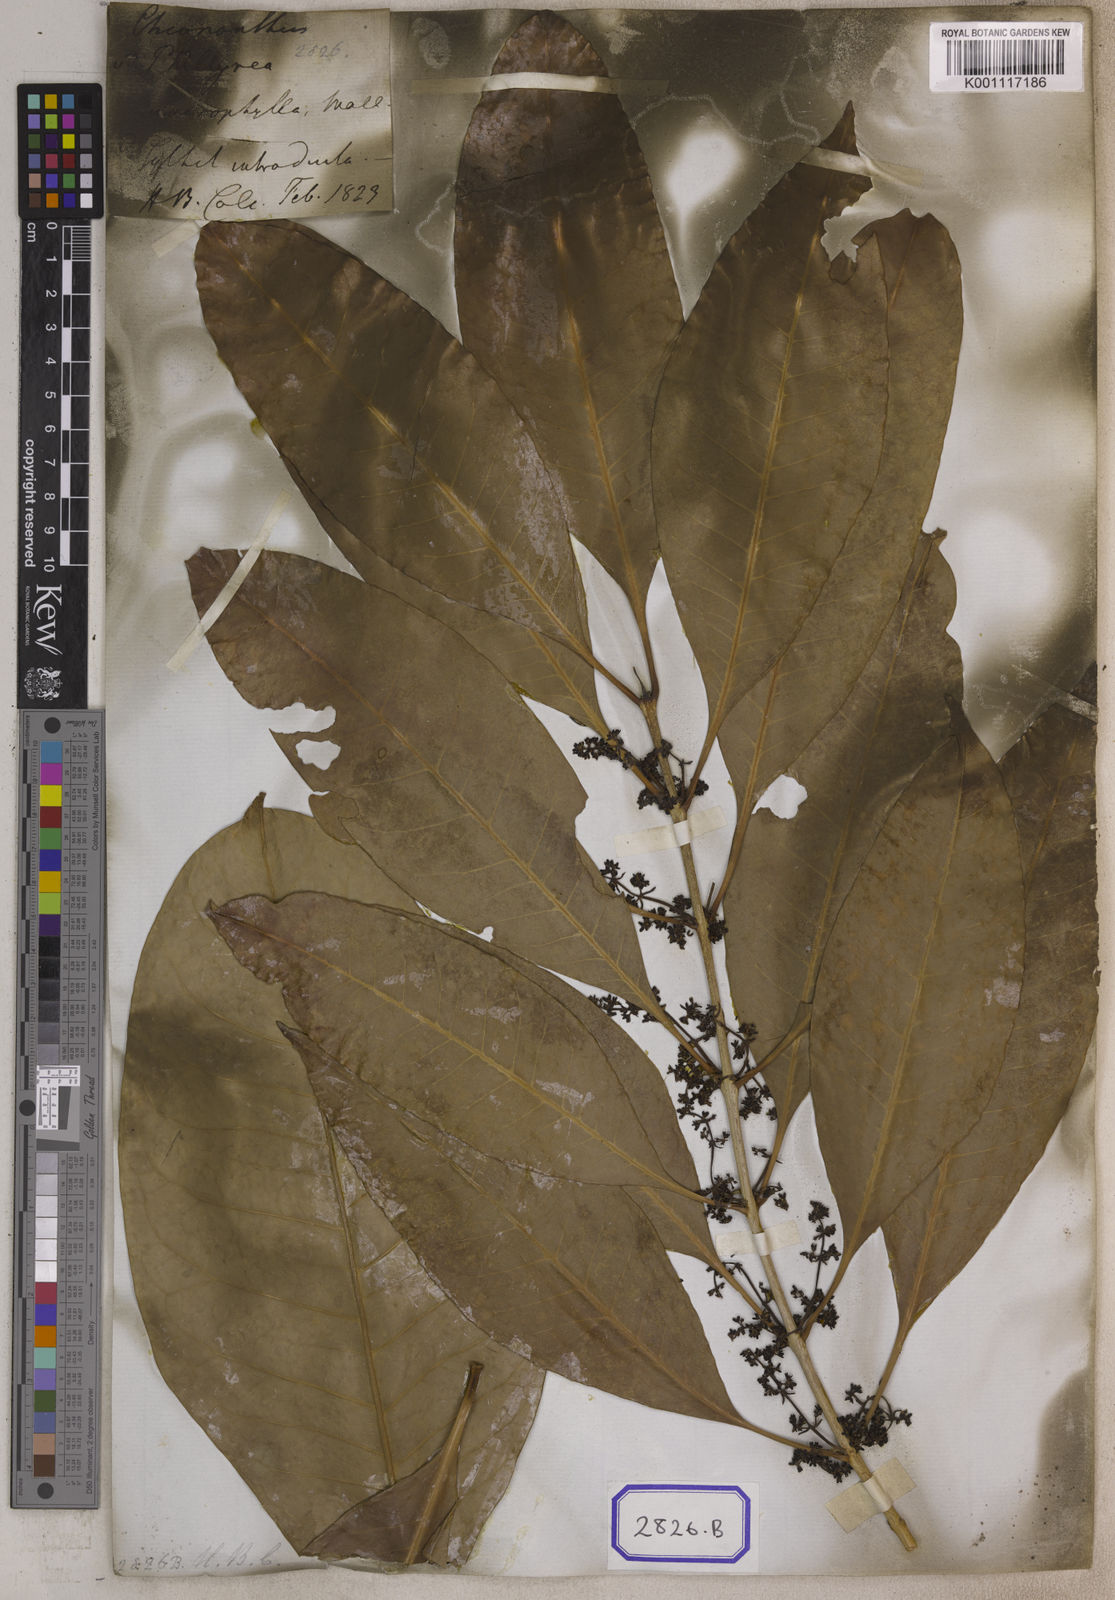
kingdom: Plantae
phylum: Tracheophyta
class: Magnoliopsida
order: Lamiales
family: Oleaceae
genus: Chionanthus
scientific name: Chionanthus
